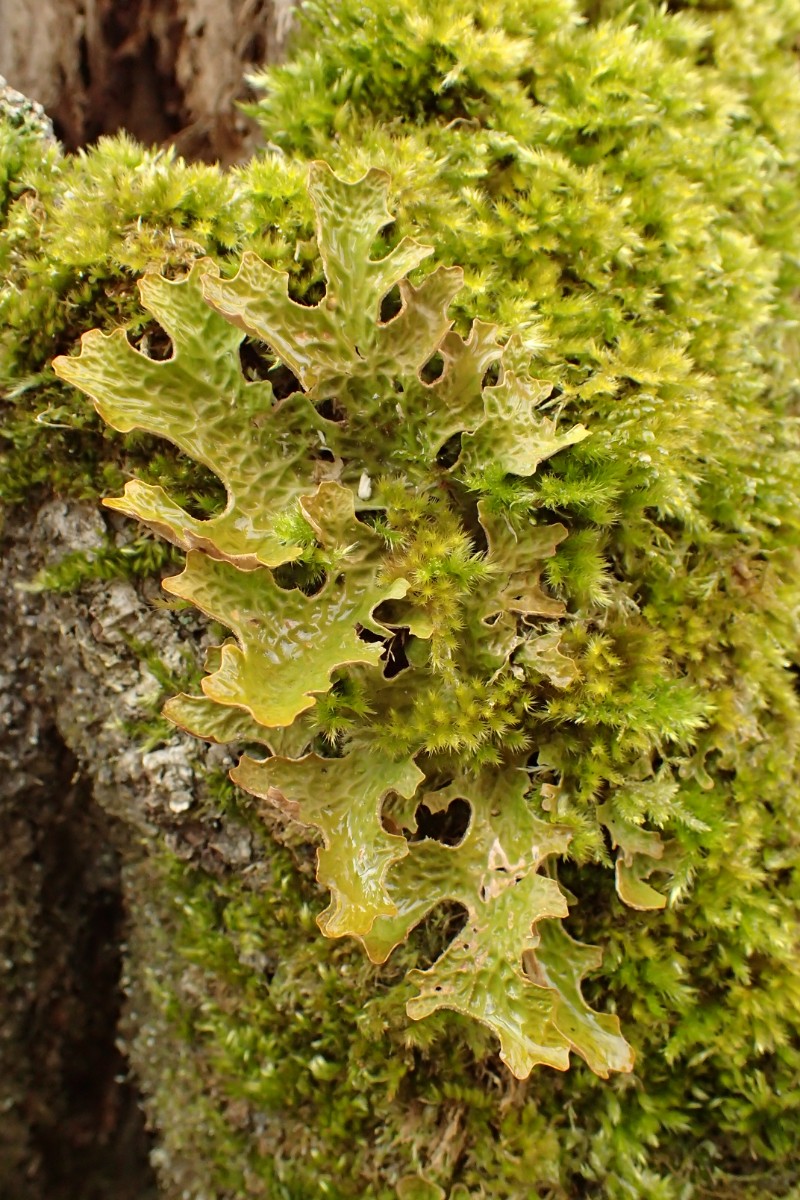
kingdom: Fungi
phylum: Ascomycota
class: Lecanoromycetes
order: Peltigerales
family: Lobariaceae
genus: Lobaria
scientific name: Lobaria pulmonaria
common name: almindelig lungelav
